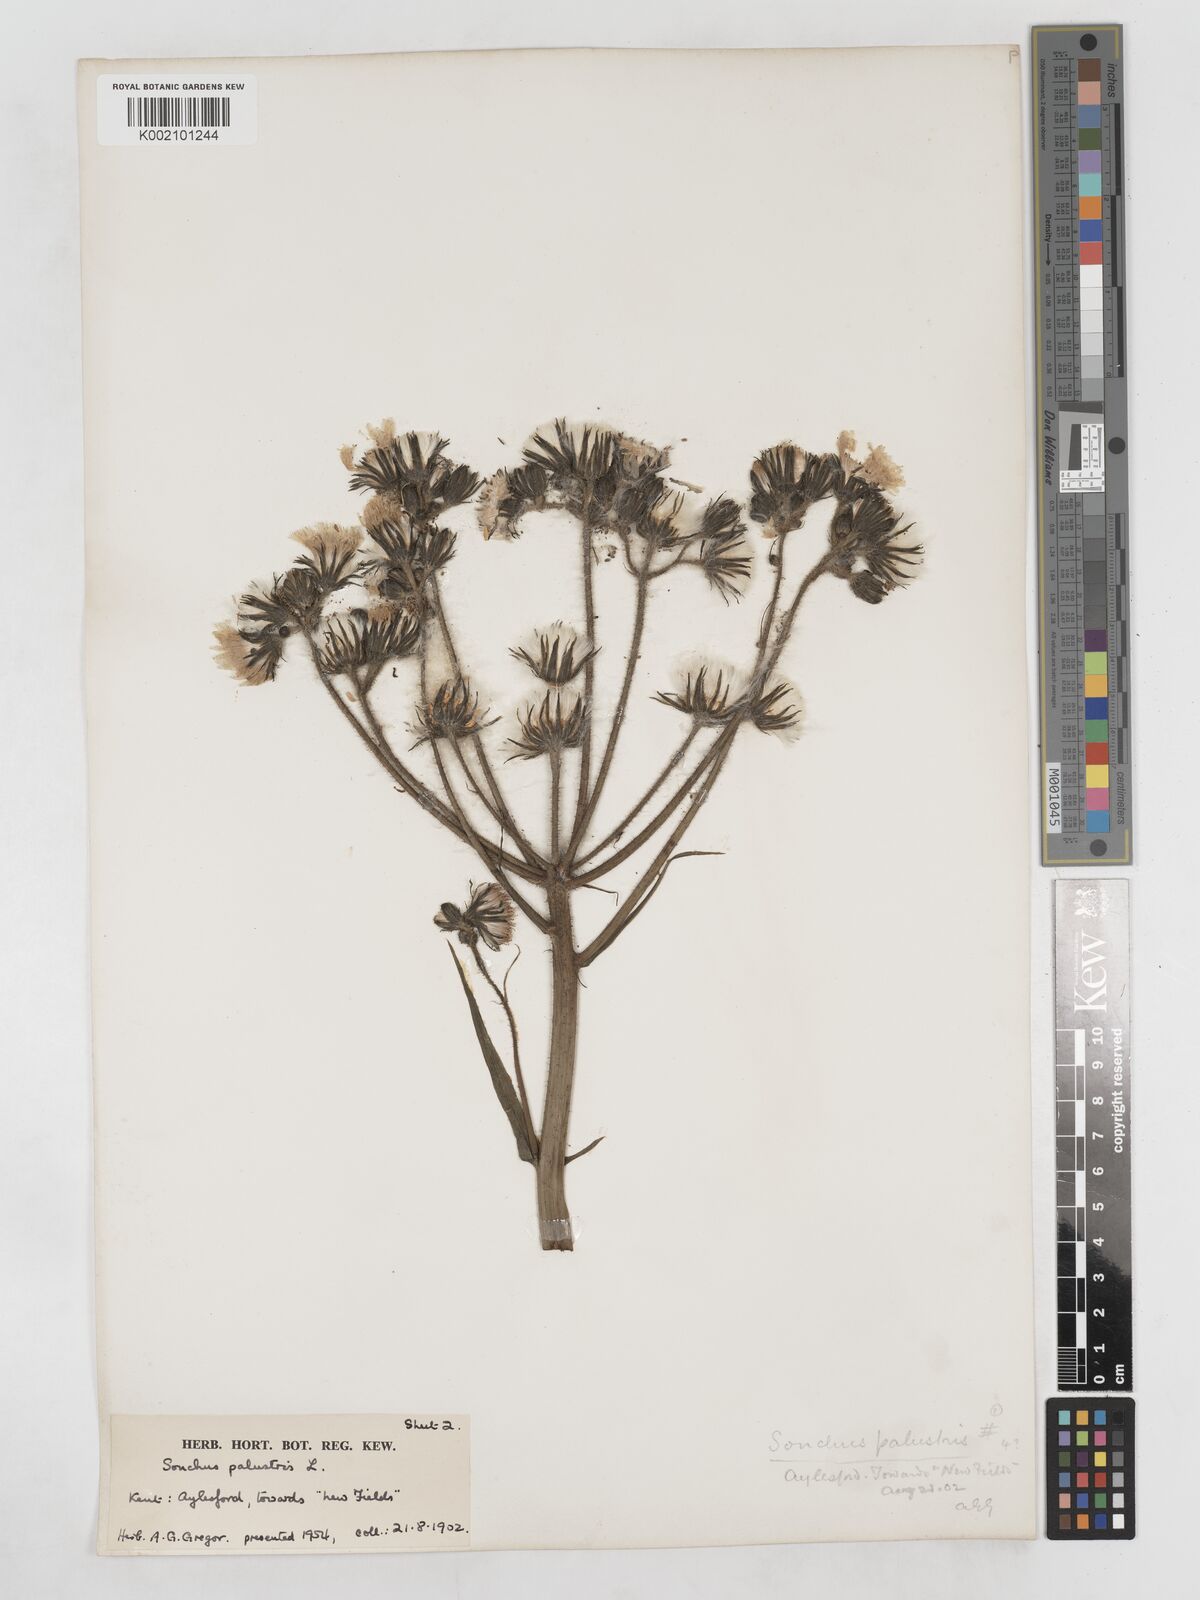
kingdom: Plantae
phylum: Tracheophyta
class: Magnoliopsida
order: Asterales
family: Asteraceae
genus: Sonchus
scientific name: Sonchus palustris
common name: Marsh sow-thistle
